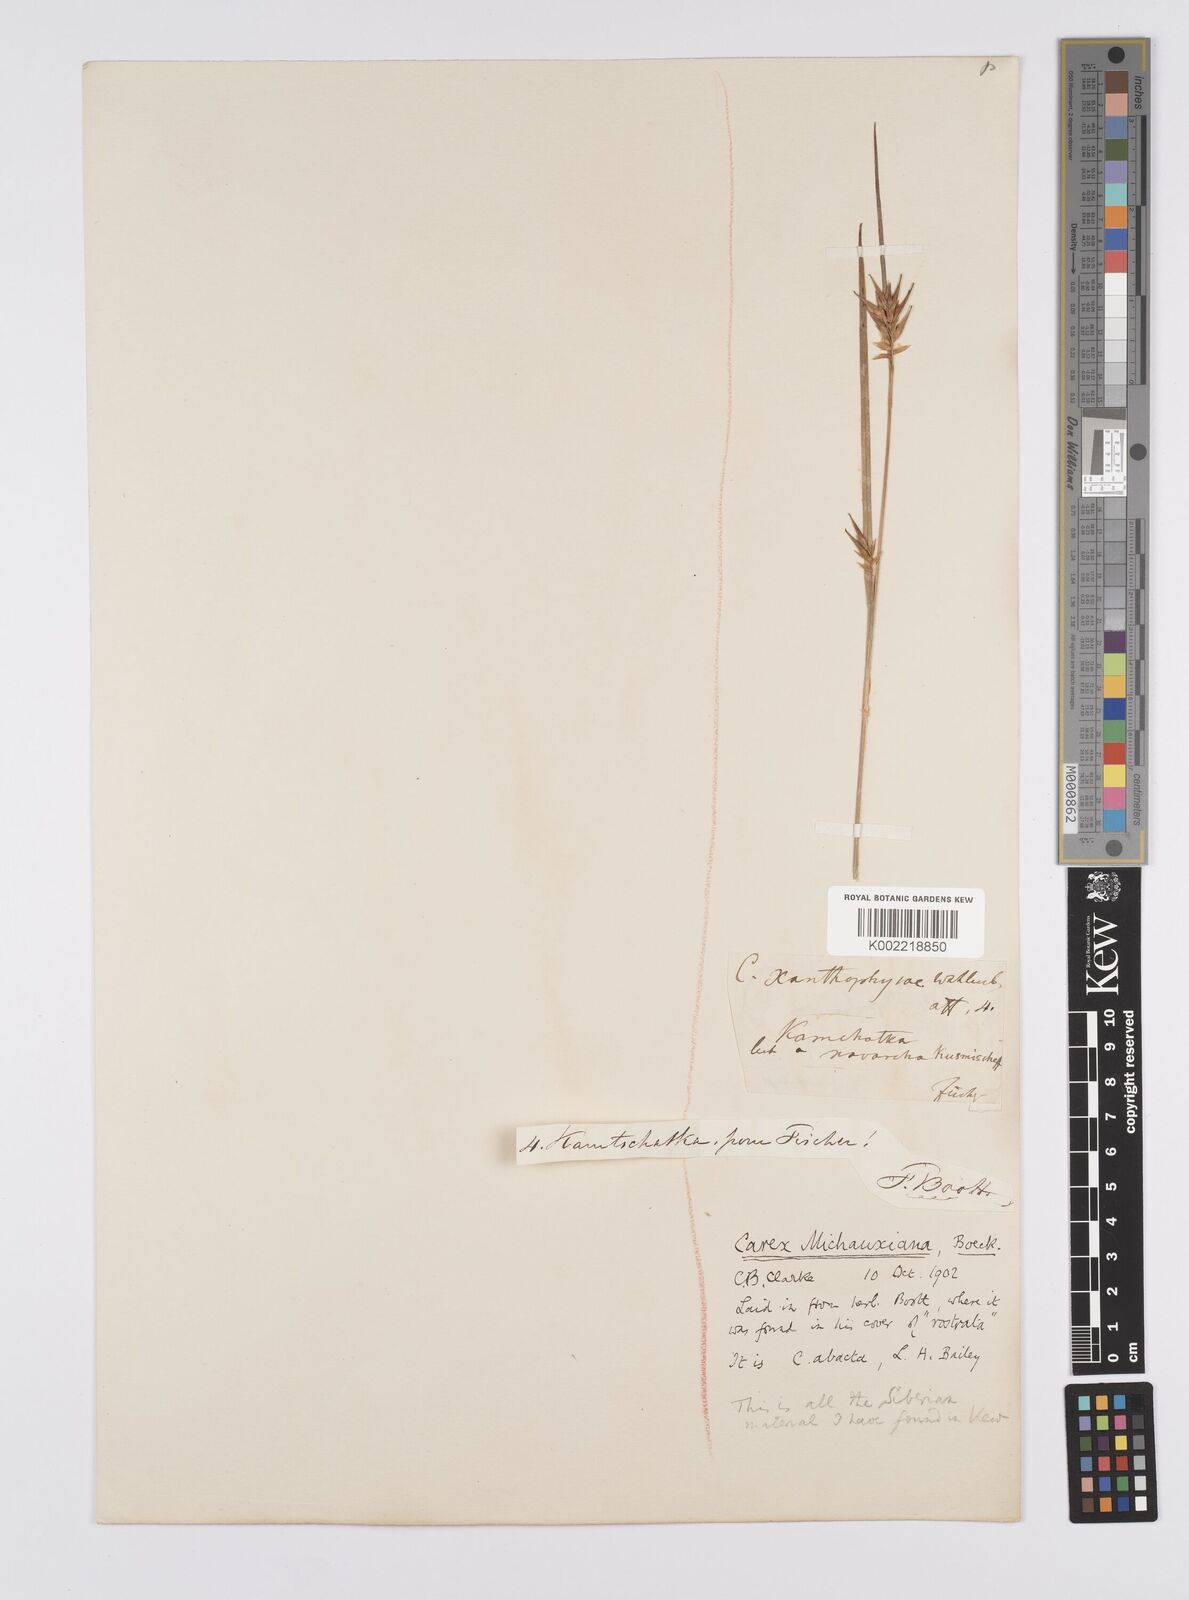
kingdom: Plantae
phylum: Tracheophyta
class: Liliopsida
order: Poales
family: Cyperaceae
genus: Carex
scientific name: Carex michauxiana
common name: Michaux's sedge
